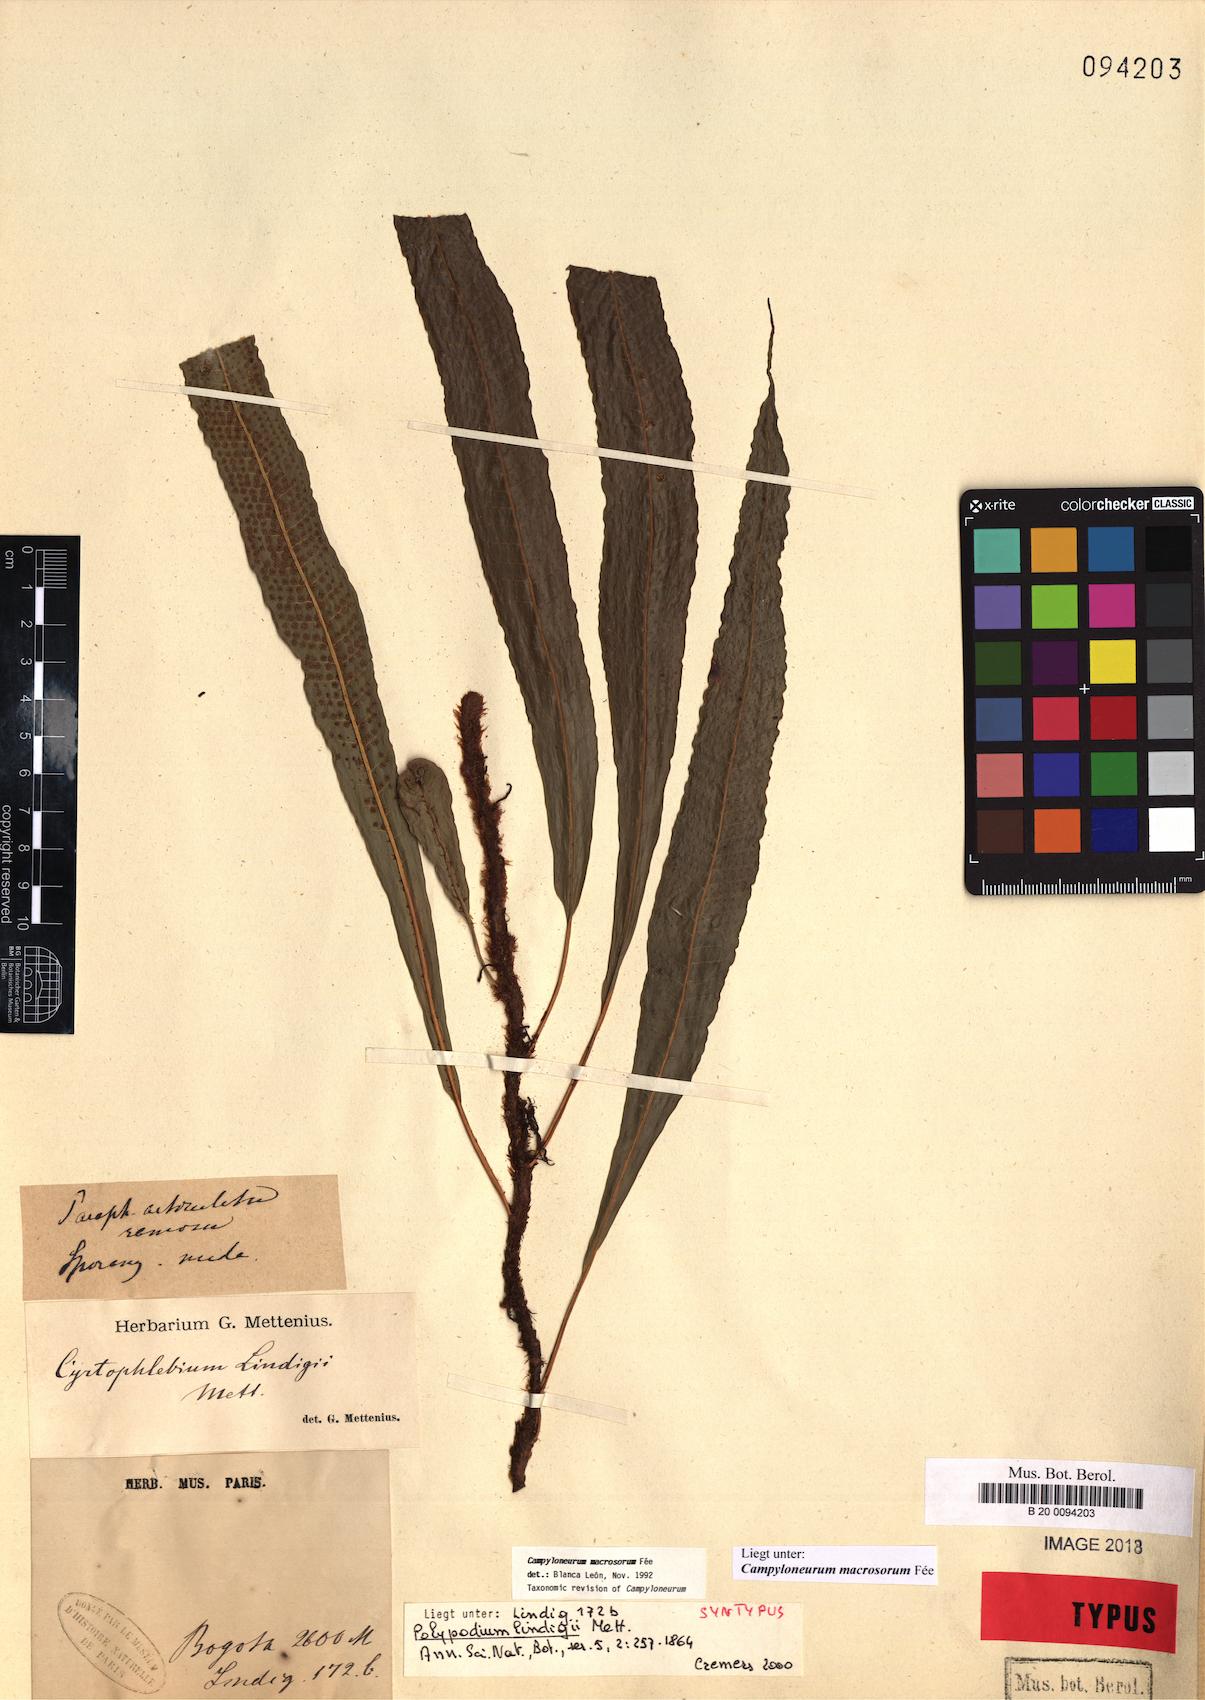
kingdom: Plantae
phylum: Tracheophyta
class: Polypodiopsida
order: Polypodiales
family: Polypodiaceae
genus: Campyloneurum
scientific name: Campyloneurum macrosorum
